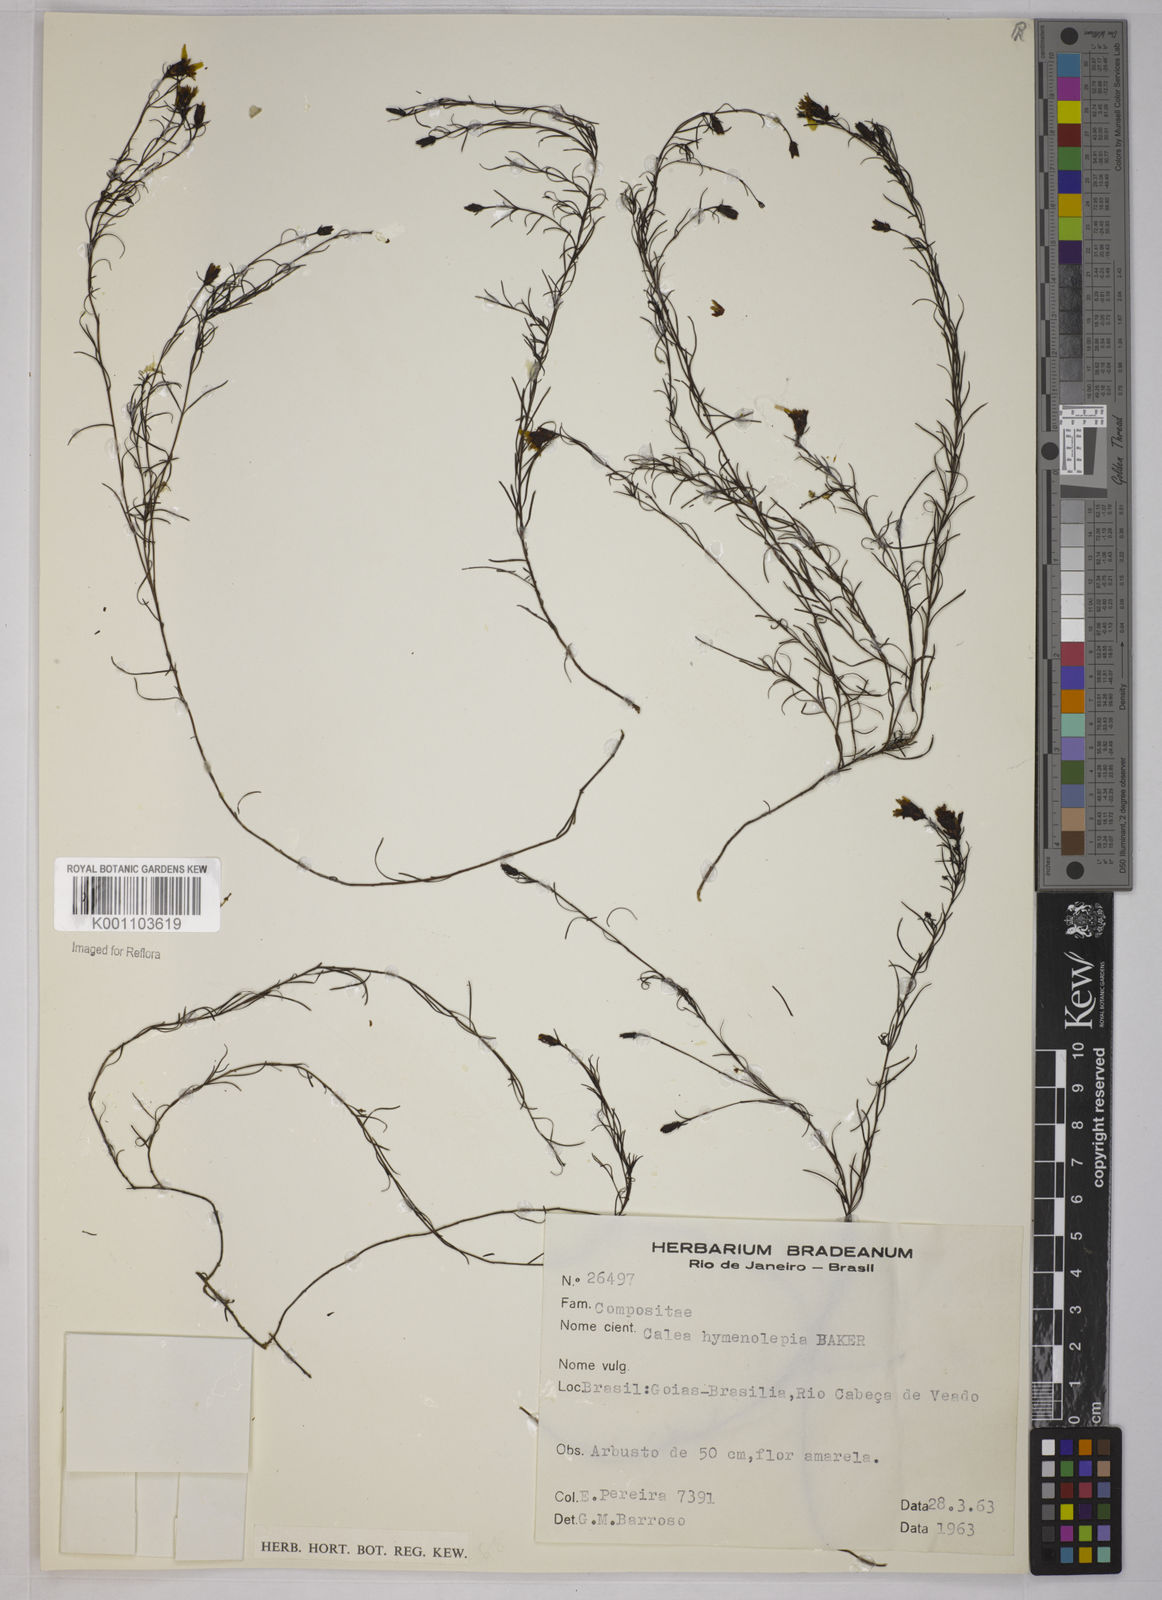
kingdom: Plantae
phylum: Tracheophyta
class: Magnoliopsida
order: Asterales
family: Asteraceae
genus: Calea
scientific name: Calea hymenolepis
